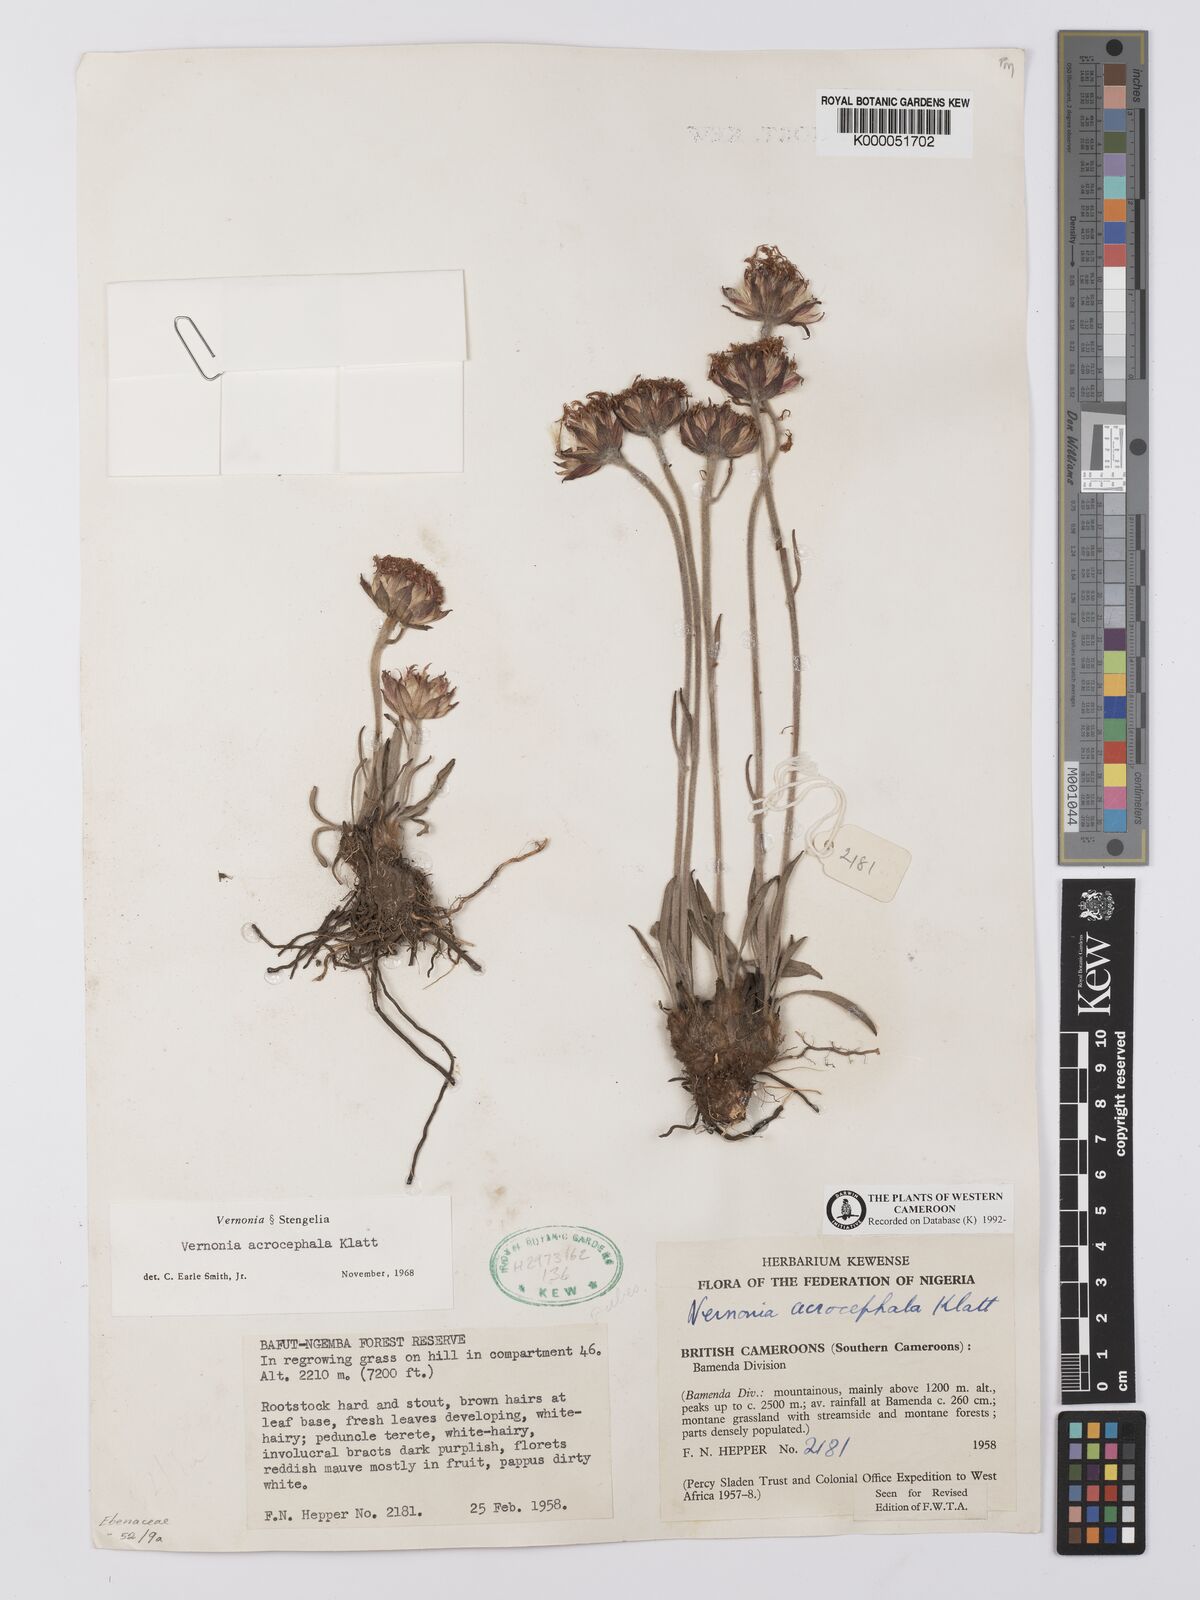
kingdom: Plantae
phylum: Tracheophyta
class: Magnoliopsida
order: Asterales
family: Asteraceae
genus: Vernonia
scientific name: Vernonia
